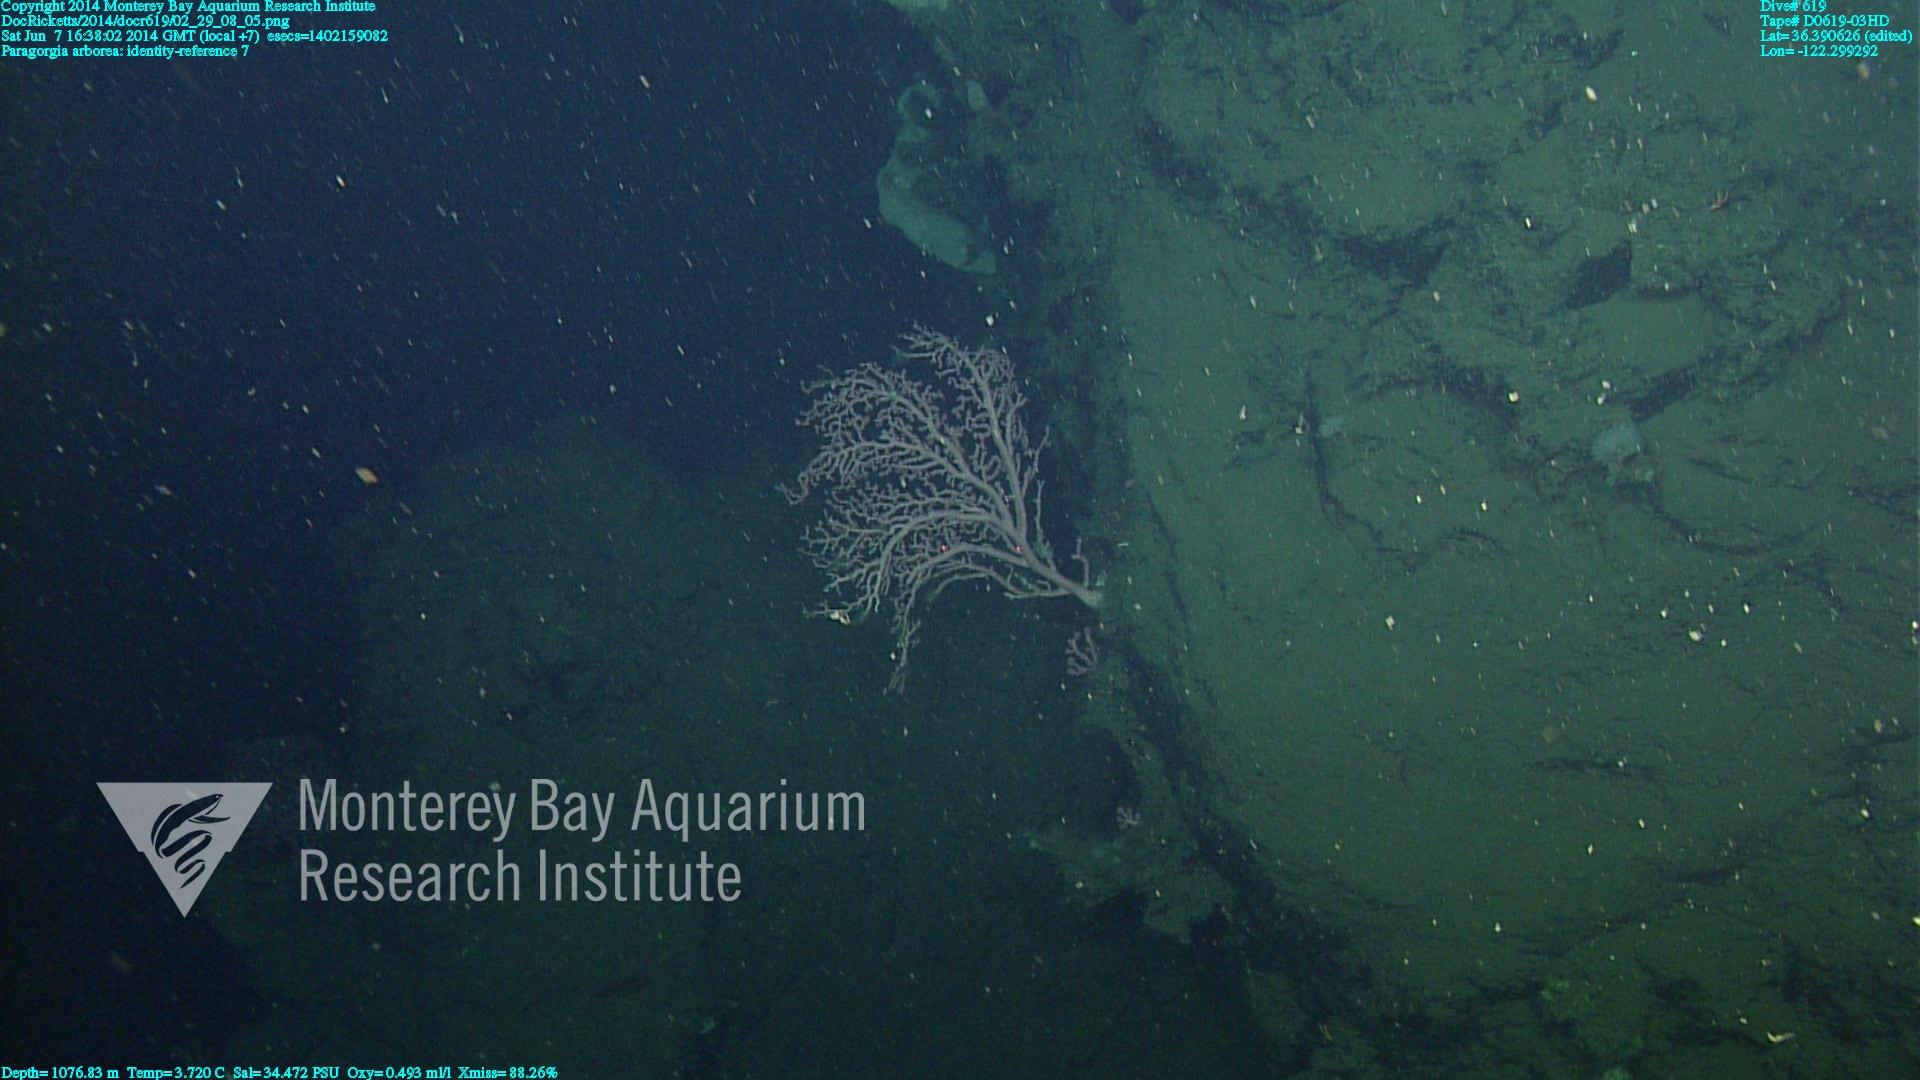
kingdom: Animalia
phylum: Cnidaria
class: Anthozoa
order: Scleralcyonacea
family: Coralliidae
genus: Paragorgia
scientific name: Paragorgia arborea
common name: Bubble gum coral
